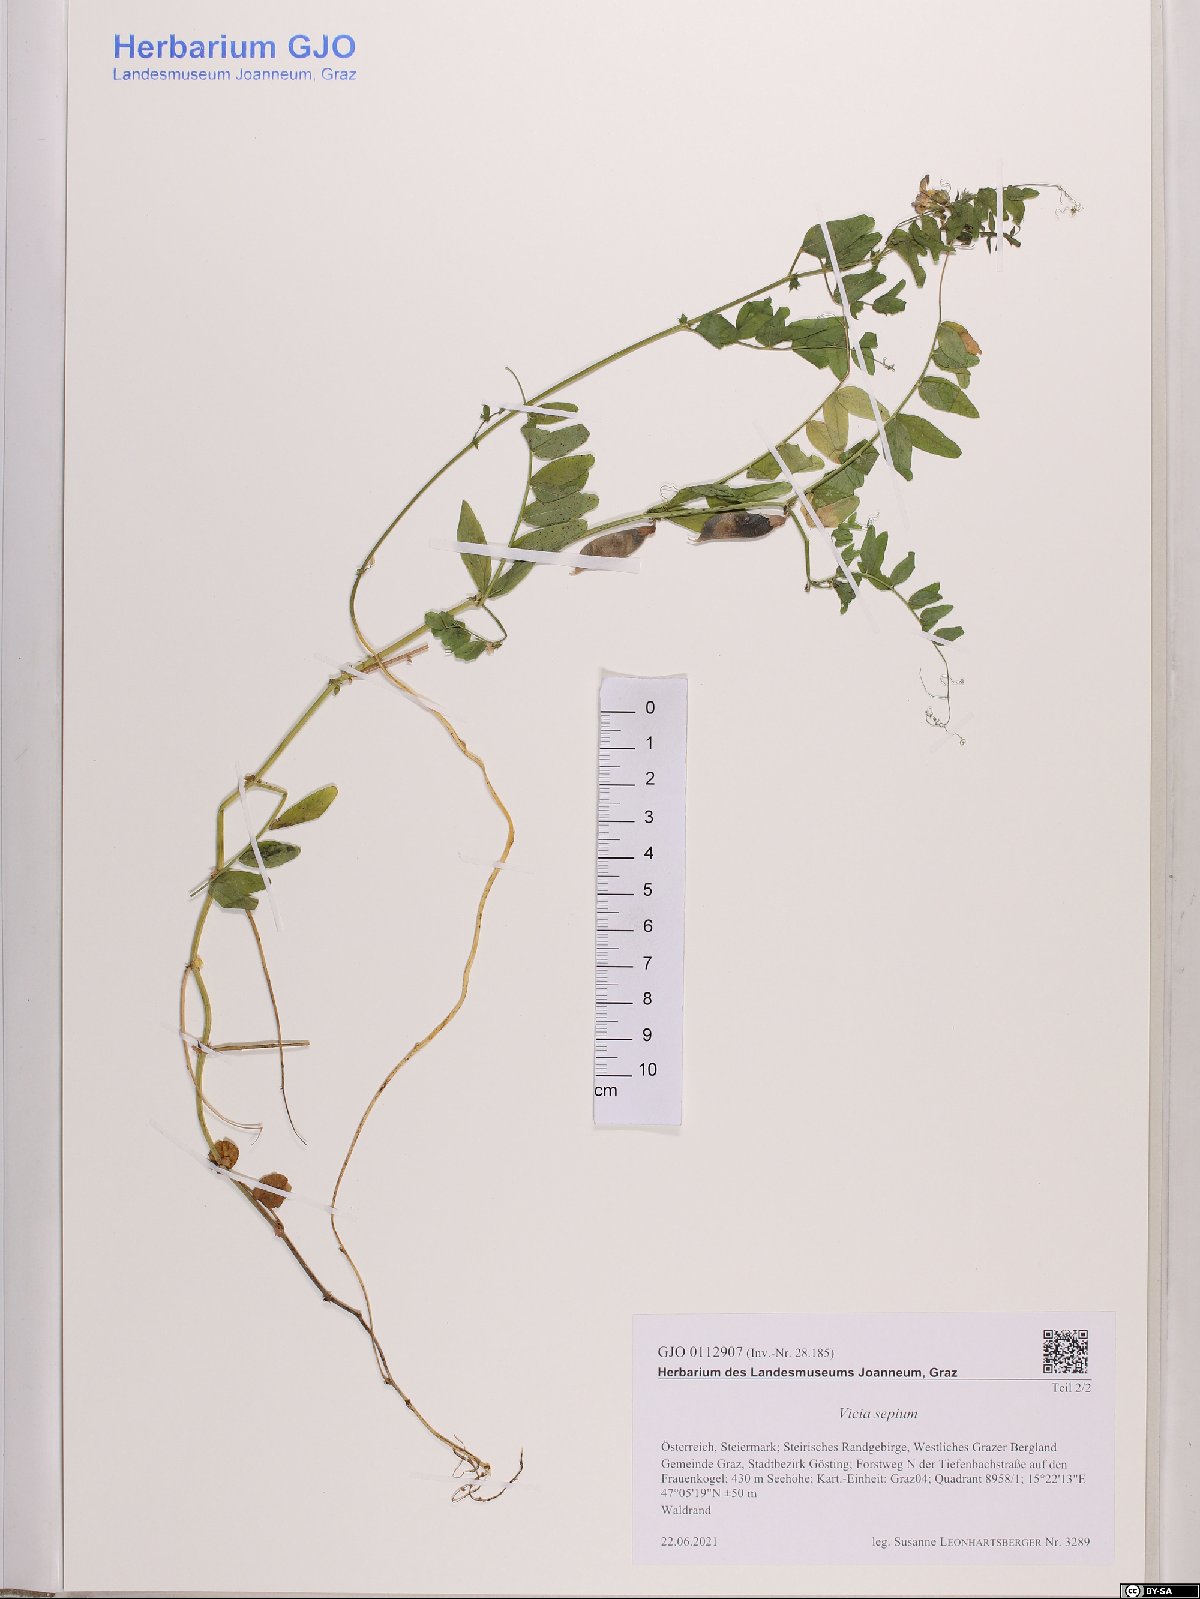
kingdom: Plantae
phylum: Tracheophyta
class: Magnoliopsida
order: Fabales
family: Fabaceae
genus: Vicia
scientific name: Vicia sepium
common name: Bush vetch
